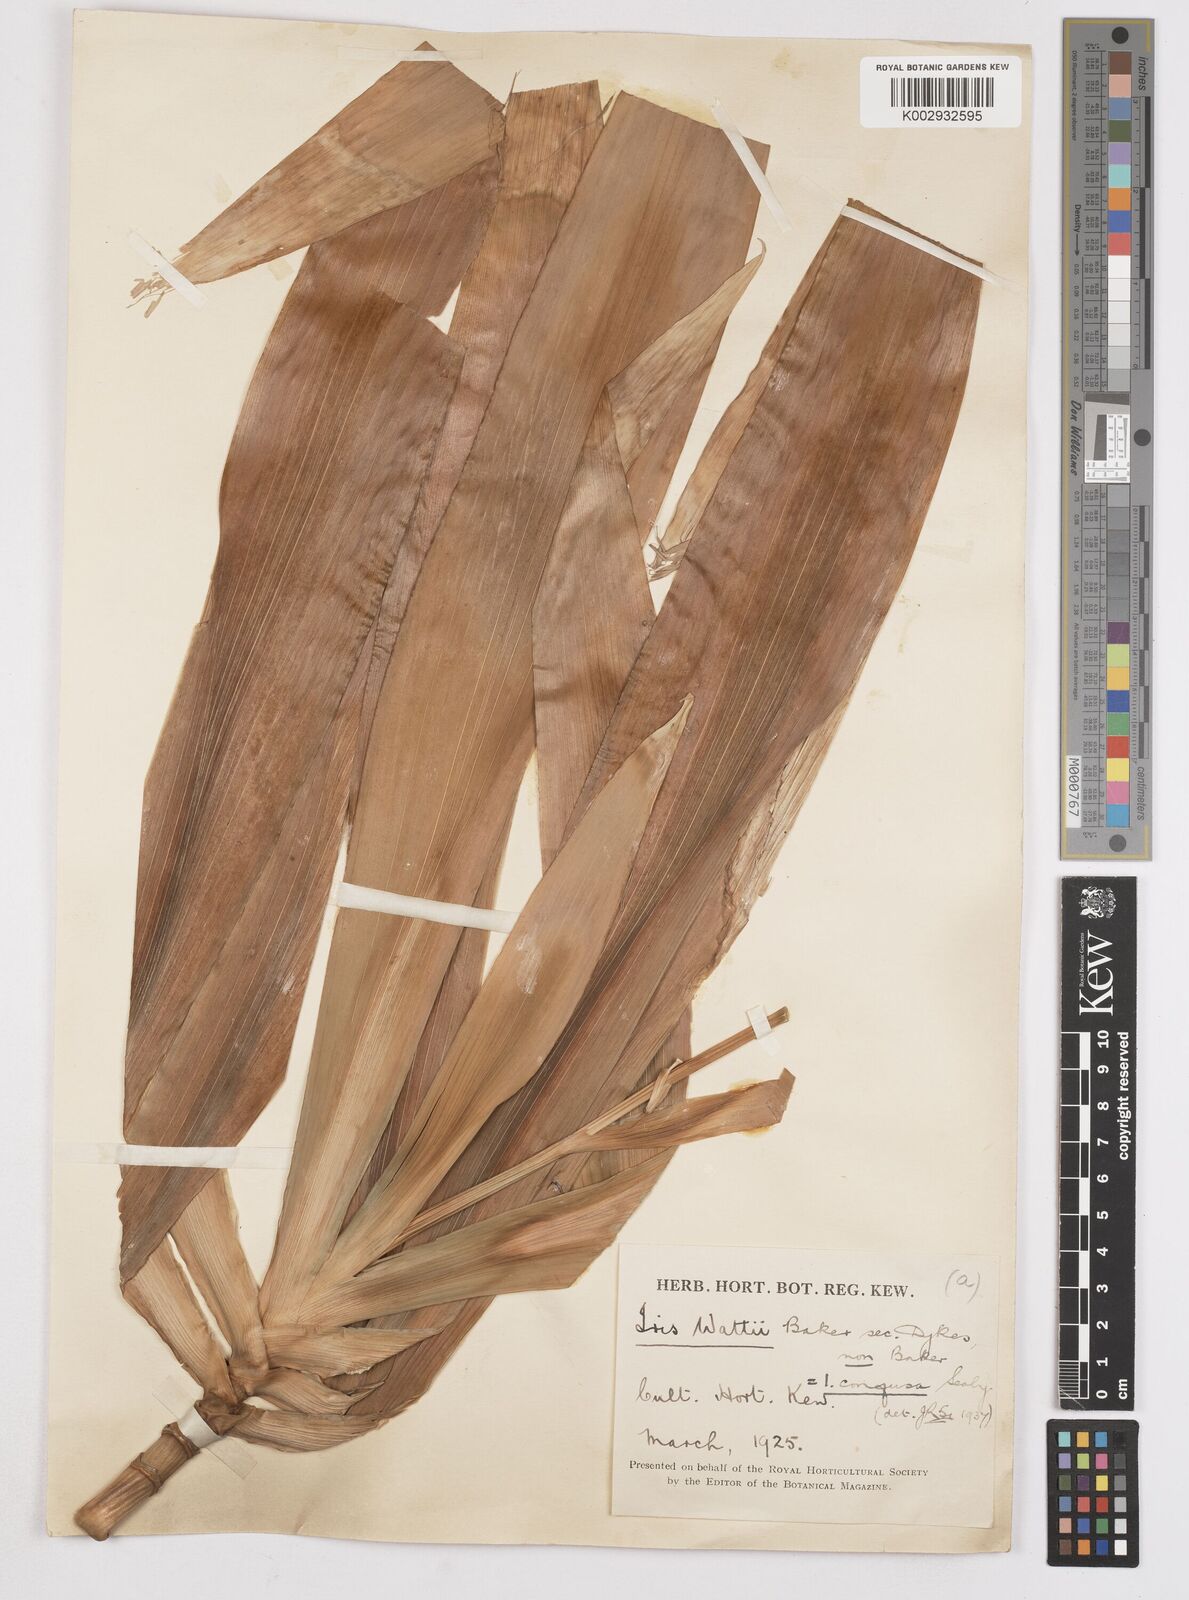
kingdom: Plantae
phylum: Tracheophyta
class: Liliopsida
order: Asparagales
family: Iridaceae
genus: Iris
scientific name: Iris wattii
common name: Fan-shape iris
